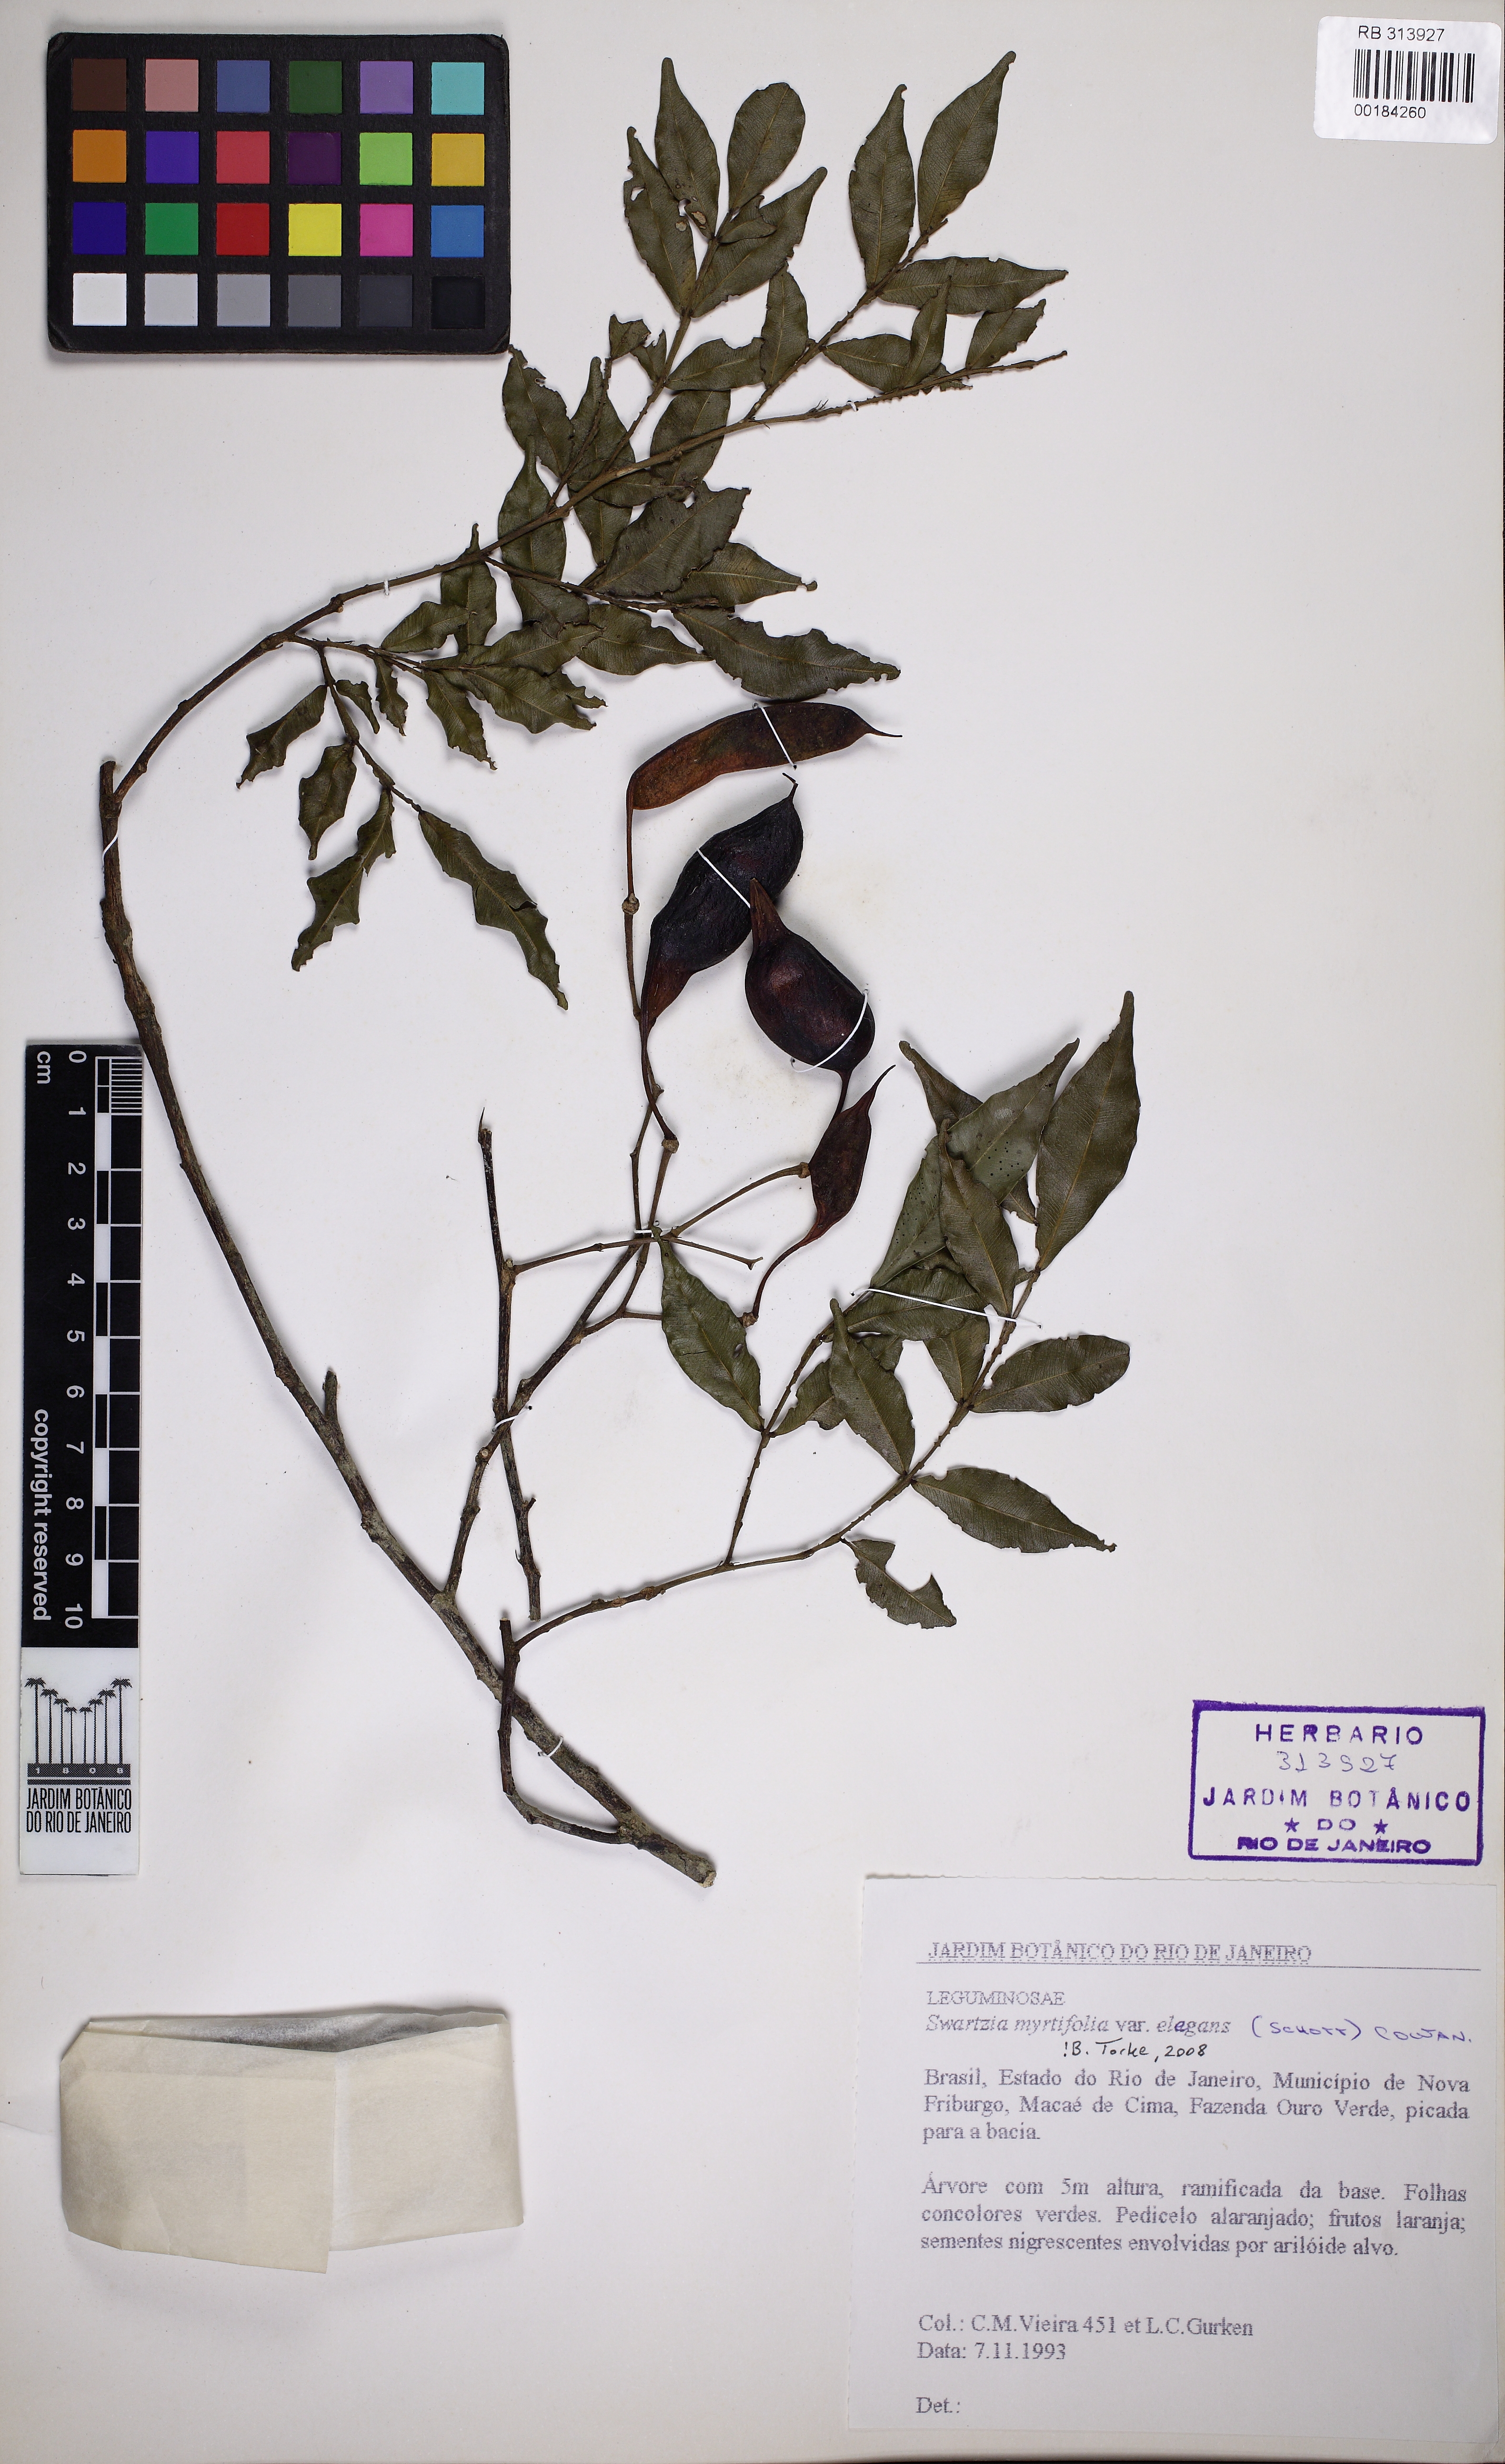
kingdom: Plantae
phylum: Tracheophyta
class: Magnoliopsida
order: Fabales
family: Fabaceae
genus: Swartzia
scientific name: Swartzia myrtifolia
